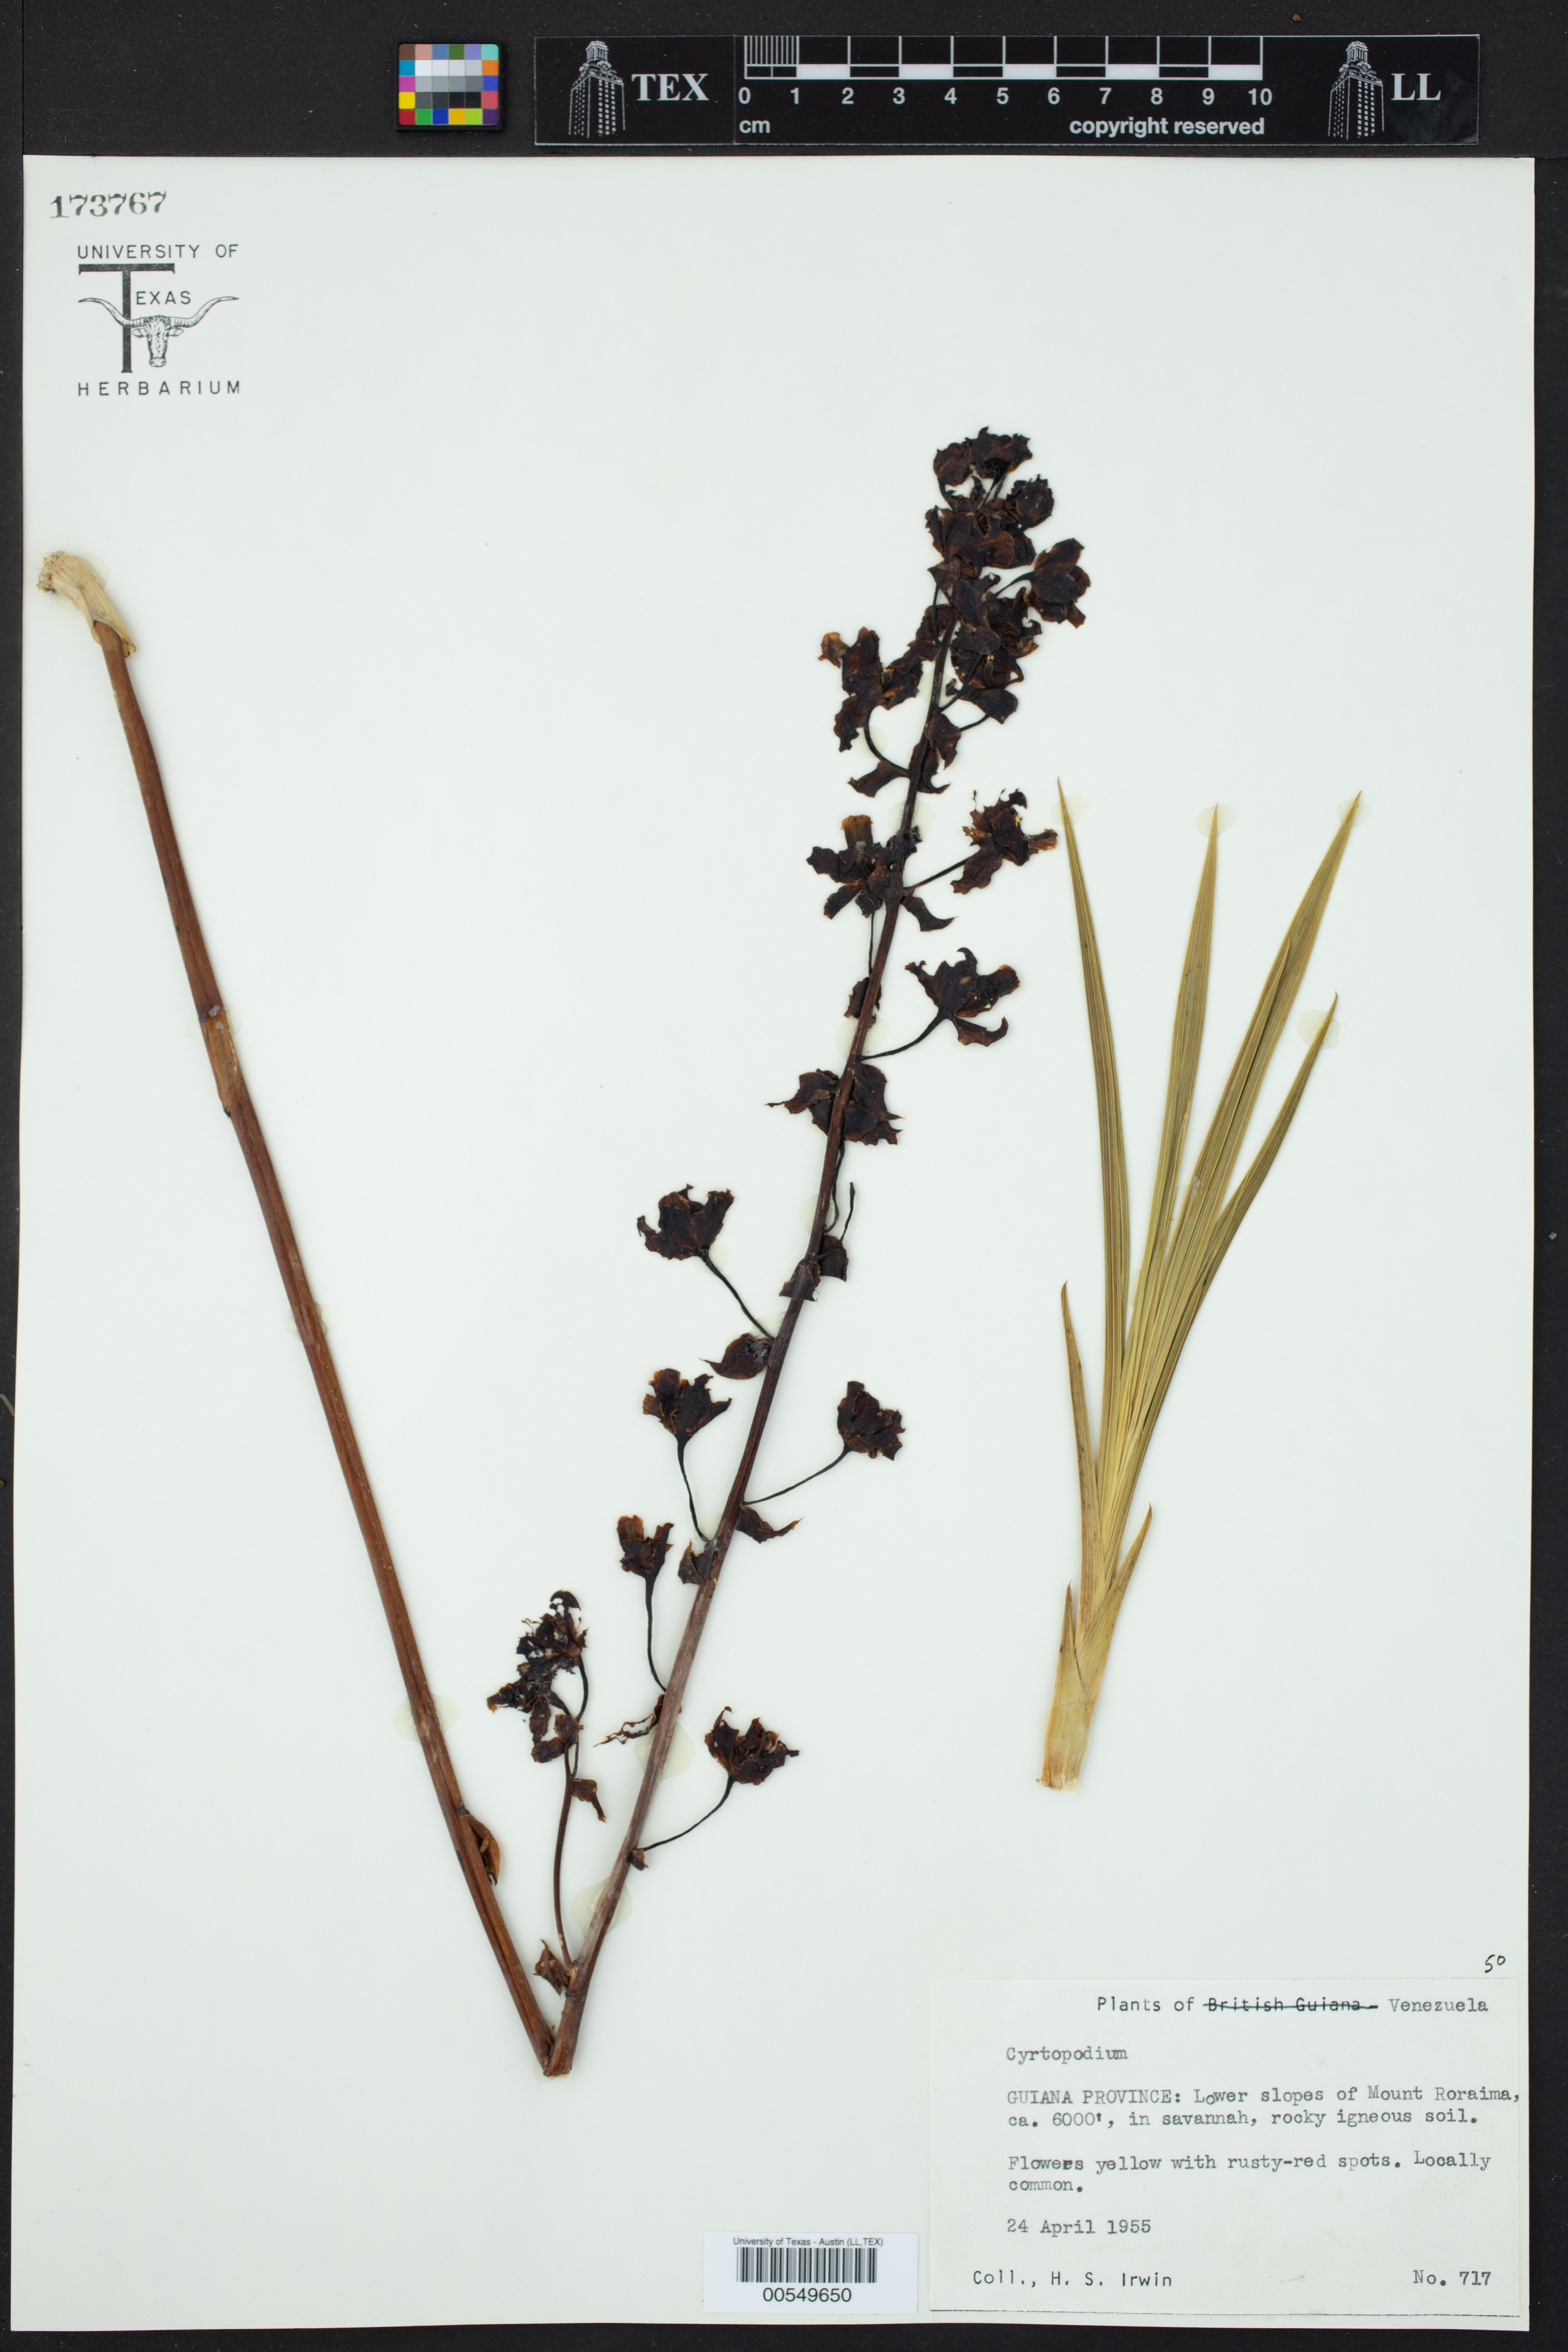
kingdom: Plantae
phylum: Tracheophyta
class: Liliopsida
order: Asparagales
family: Orchidaceae
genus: Cyrtopodium
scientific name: Cyrtopodium
